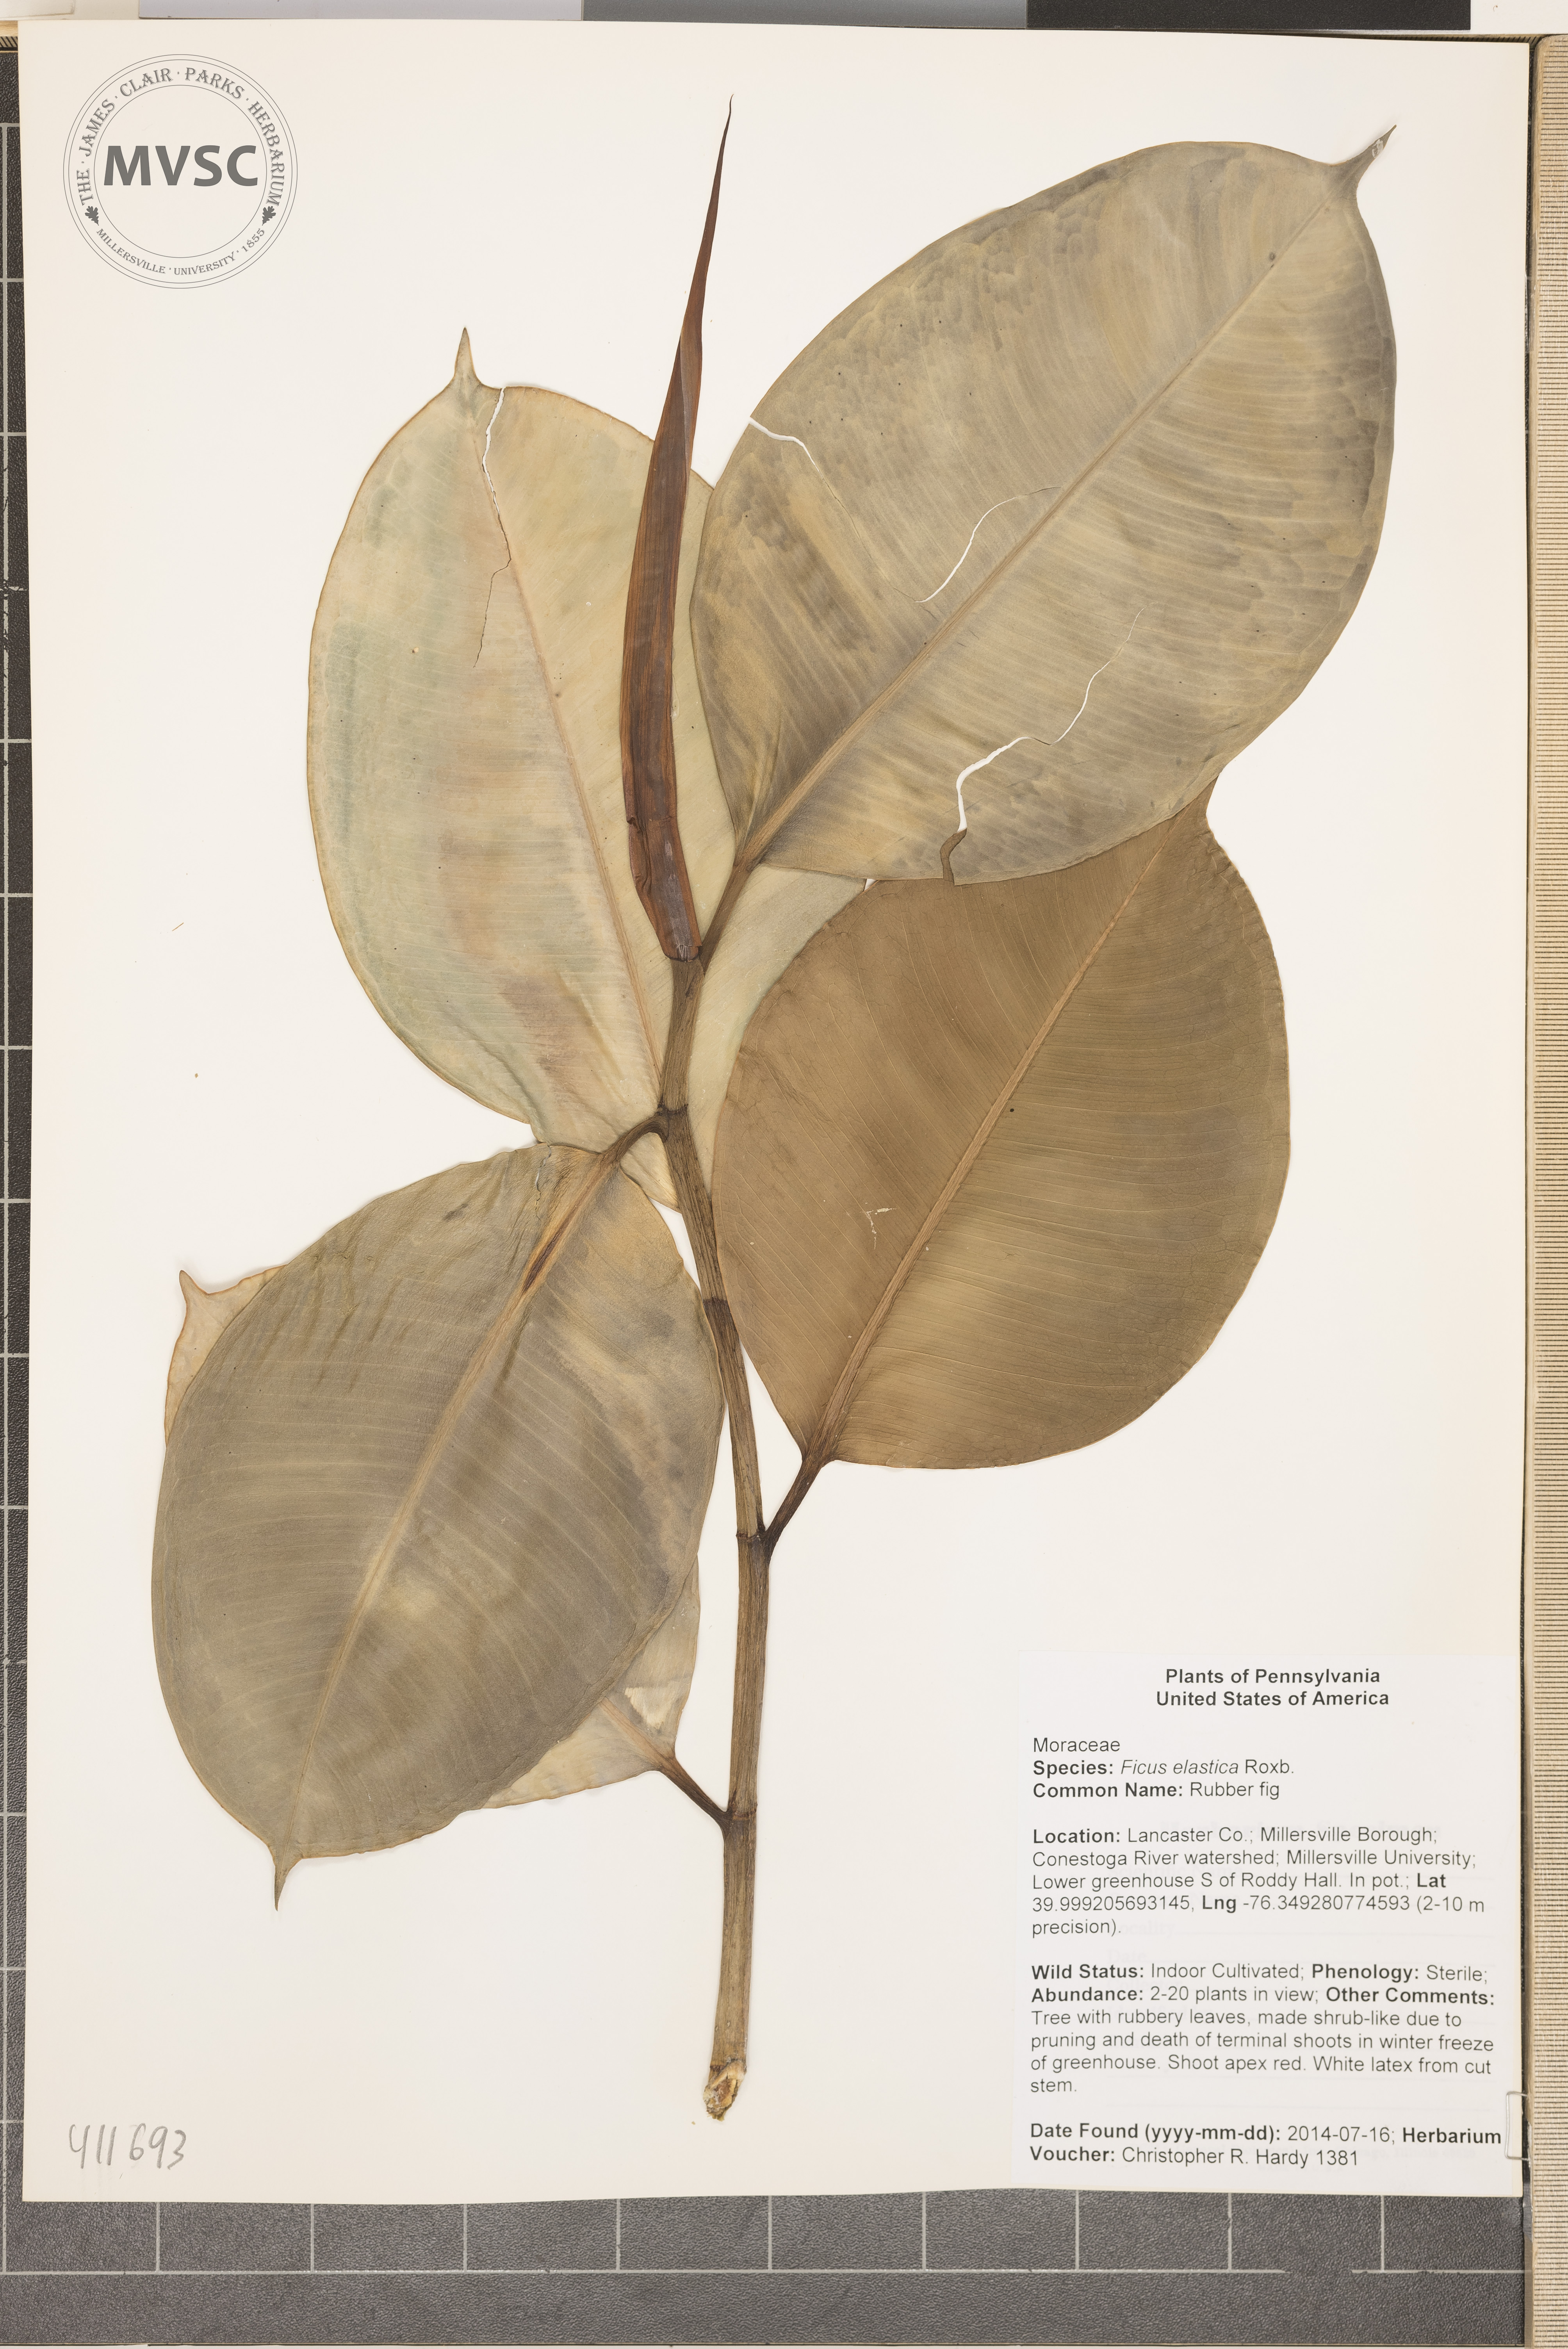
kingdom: Plantae
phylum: Tracheophyta
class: Magnoliopsida
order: Rosales
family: Moraceae
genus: Ficus
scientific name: Ficus elastica
